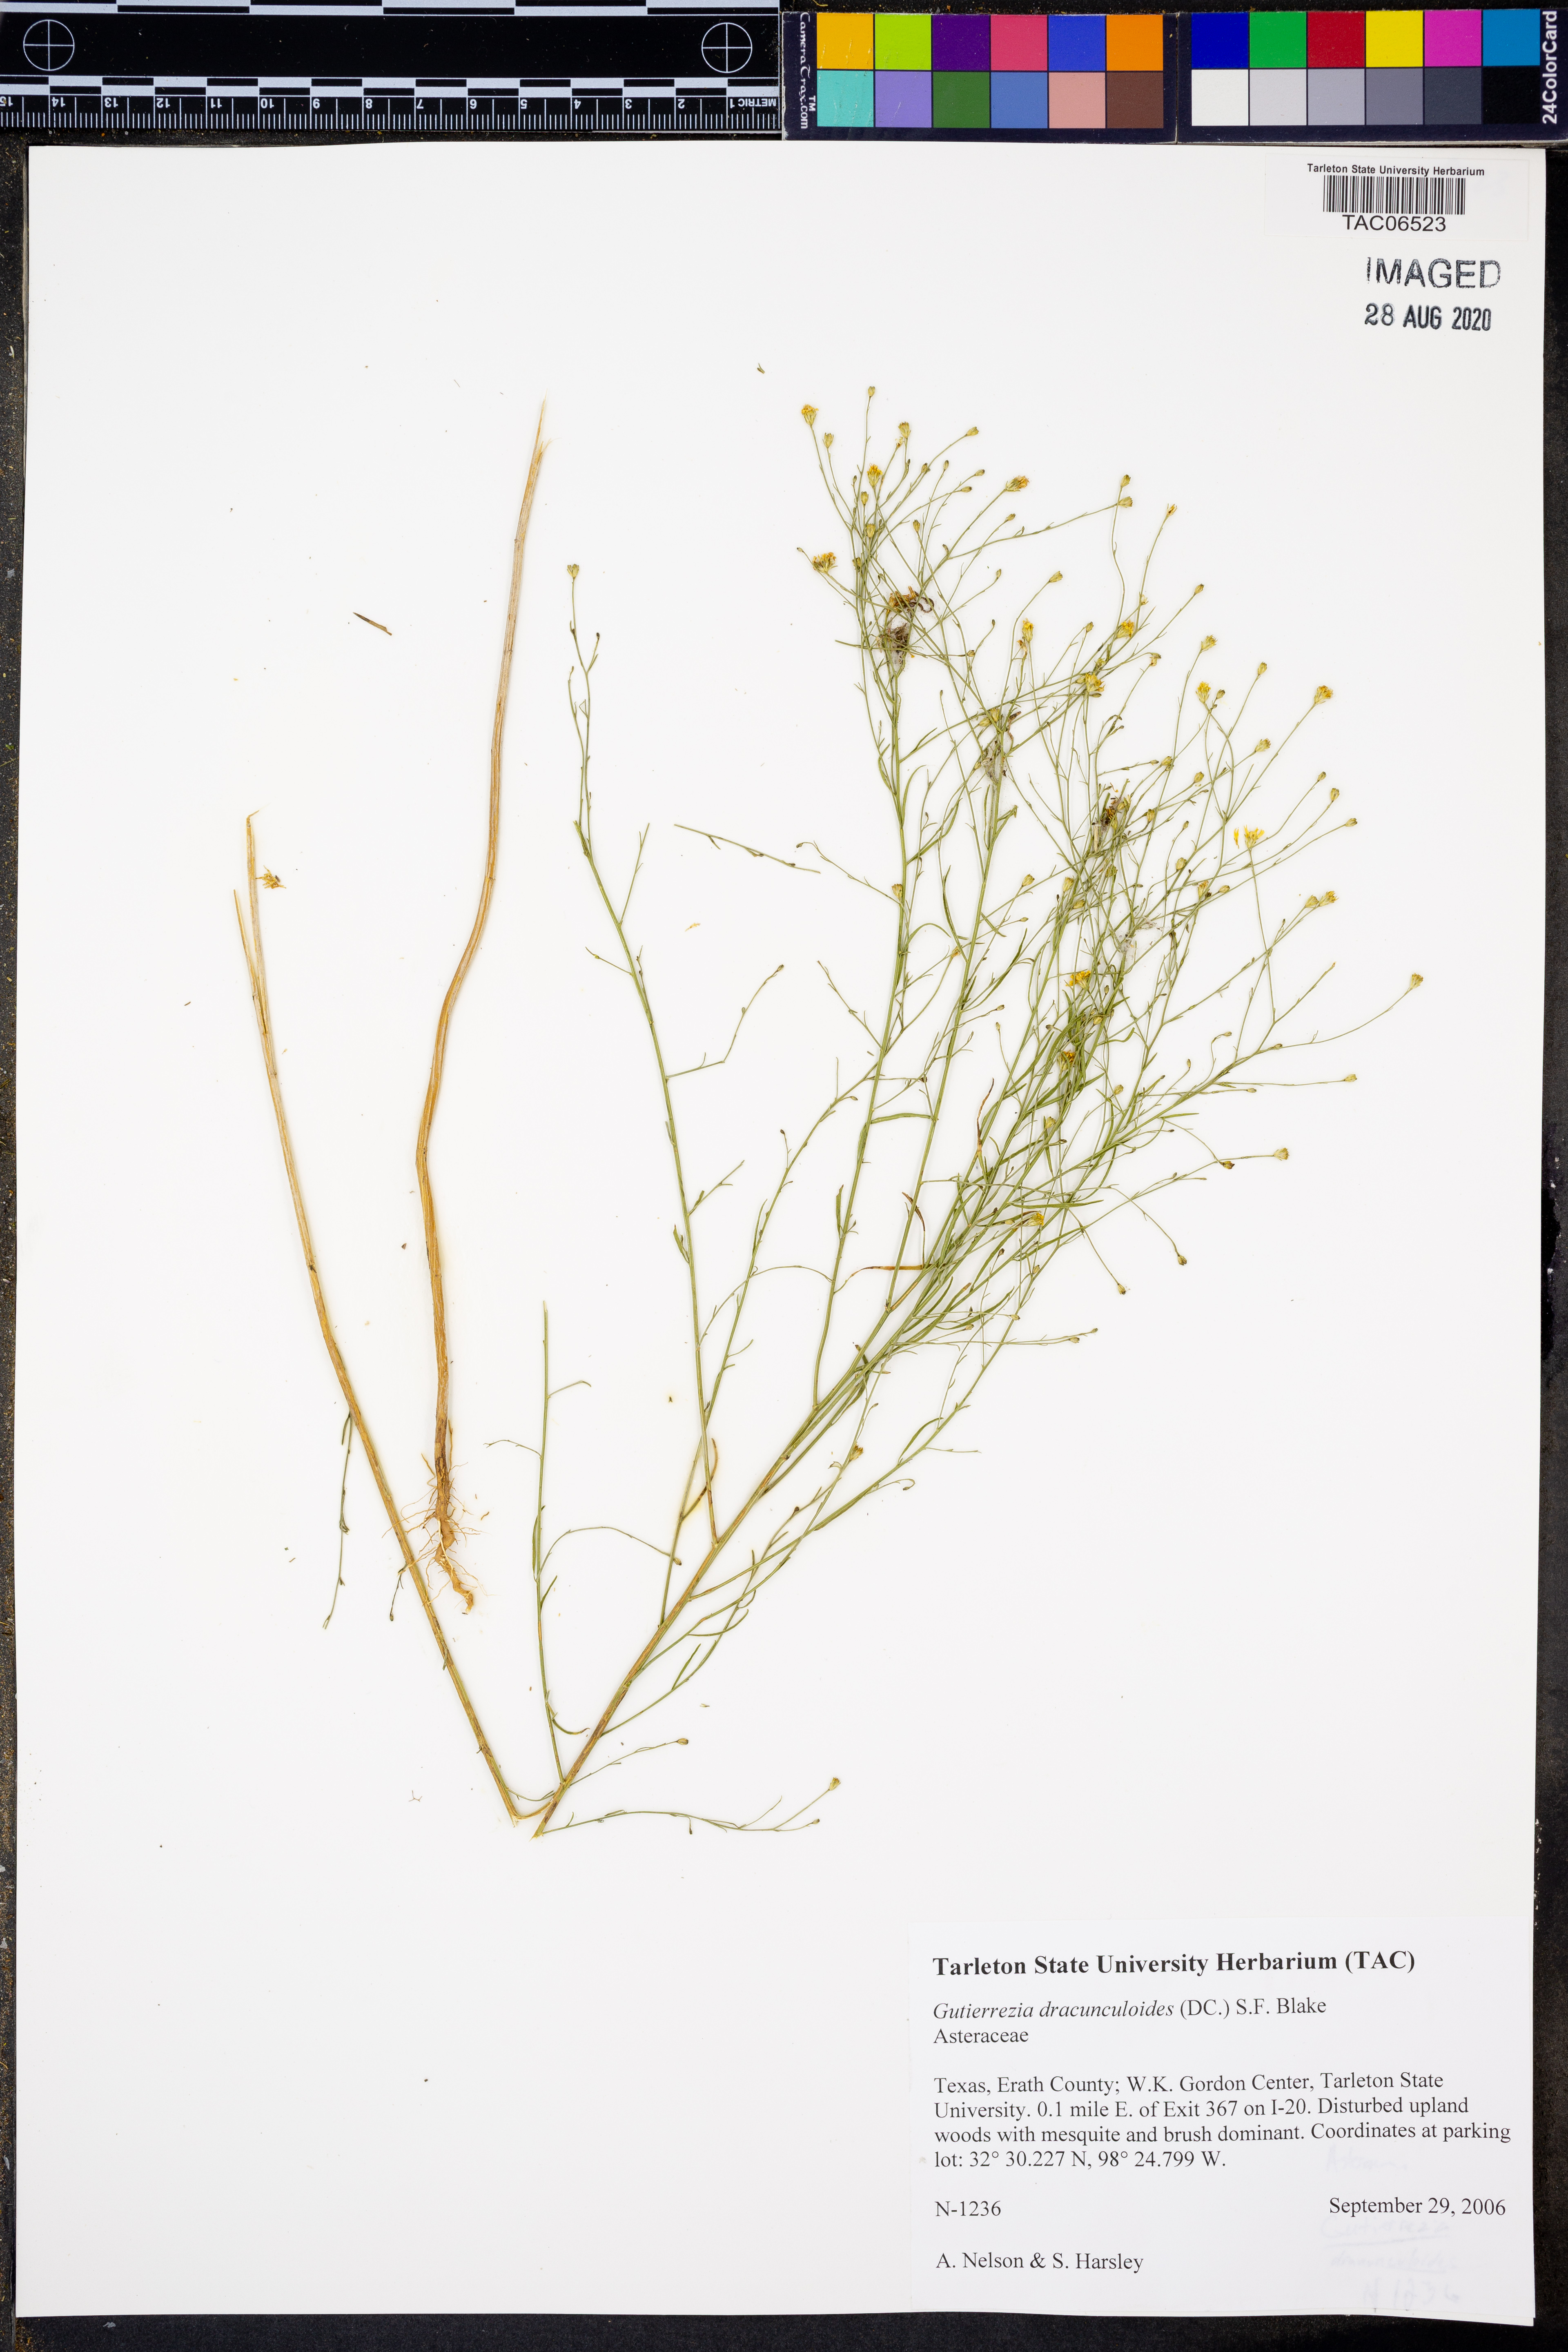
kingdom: Plantae
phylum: Tracheophyta
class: Magnoliopsida
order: Asterales
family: Asteraceae
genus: Amphiachyris
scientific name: Amphiachyris dracunculoides
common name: Broomweed
